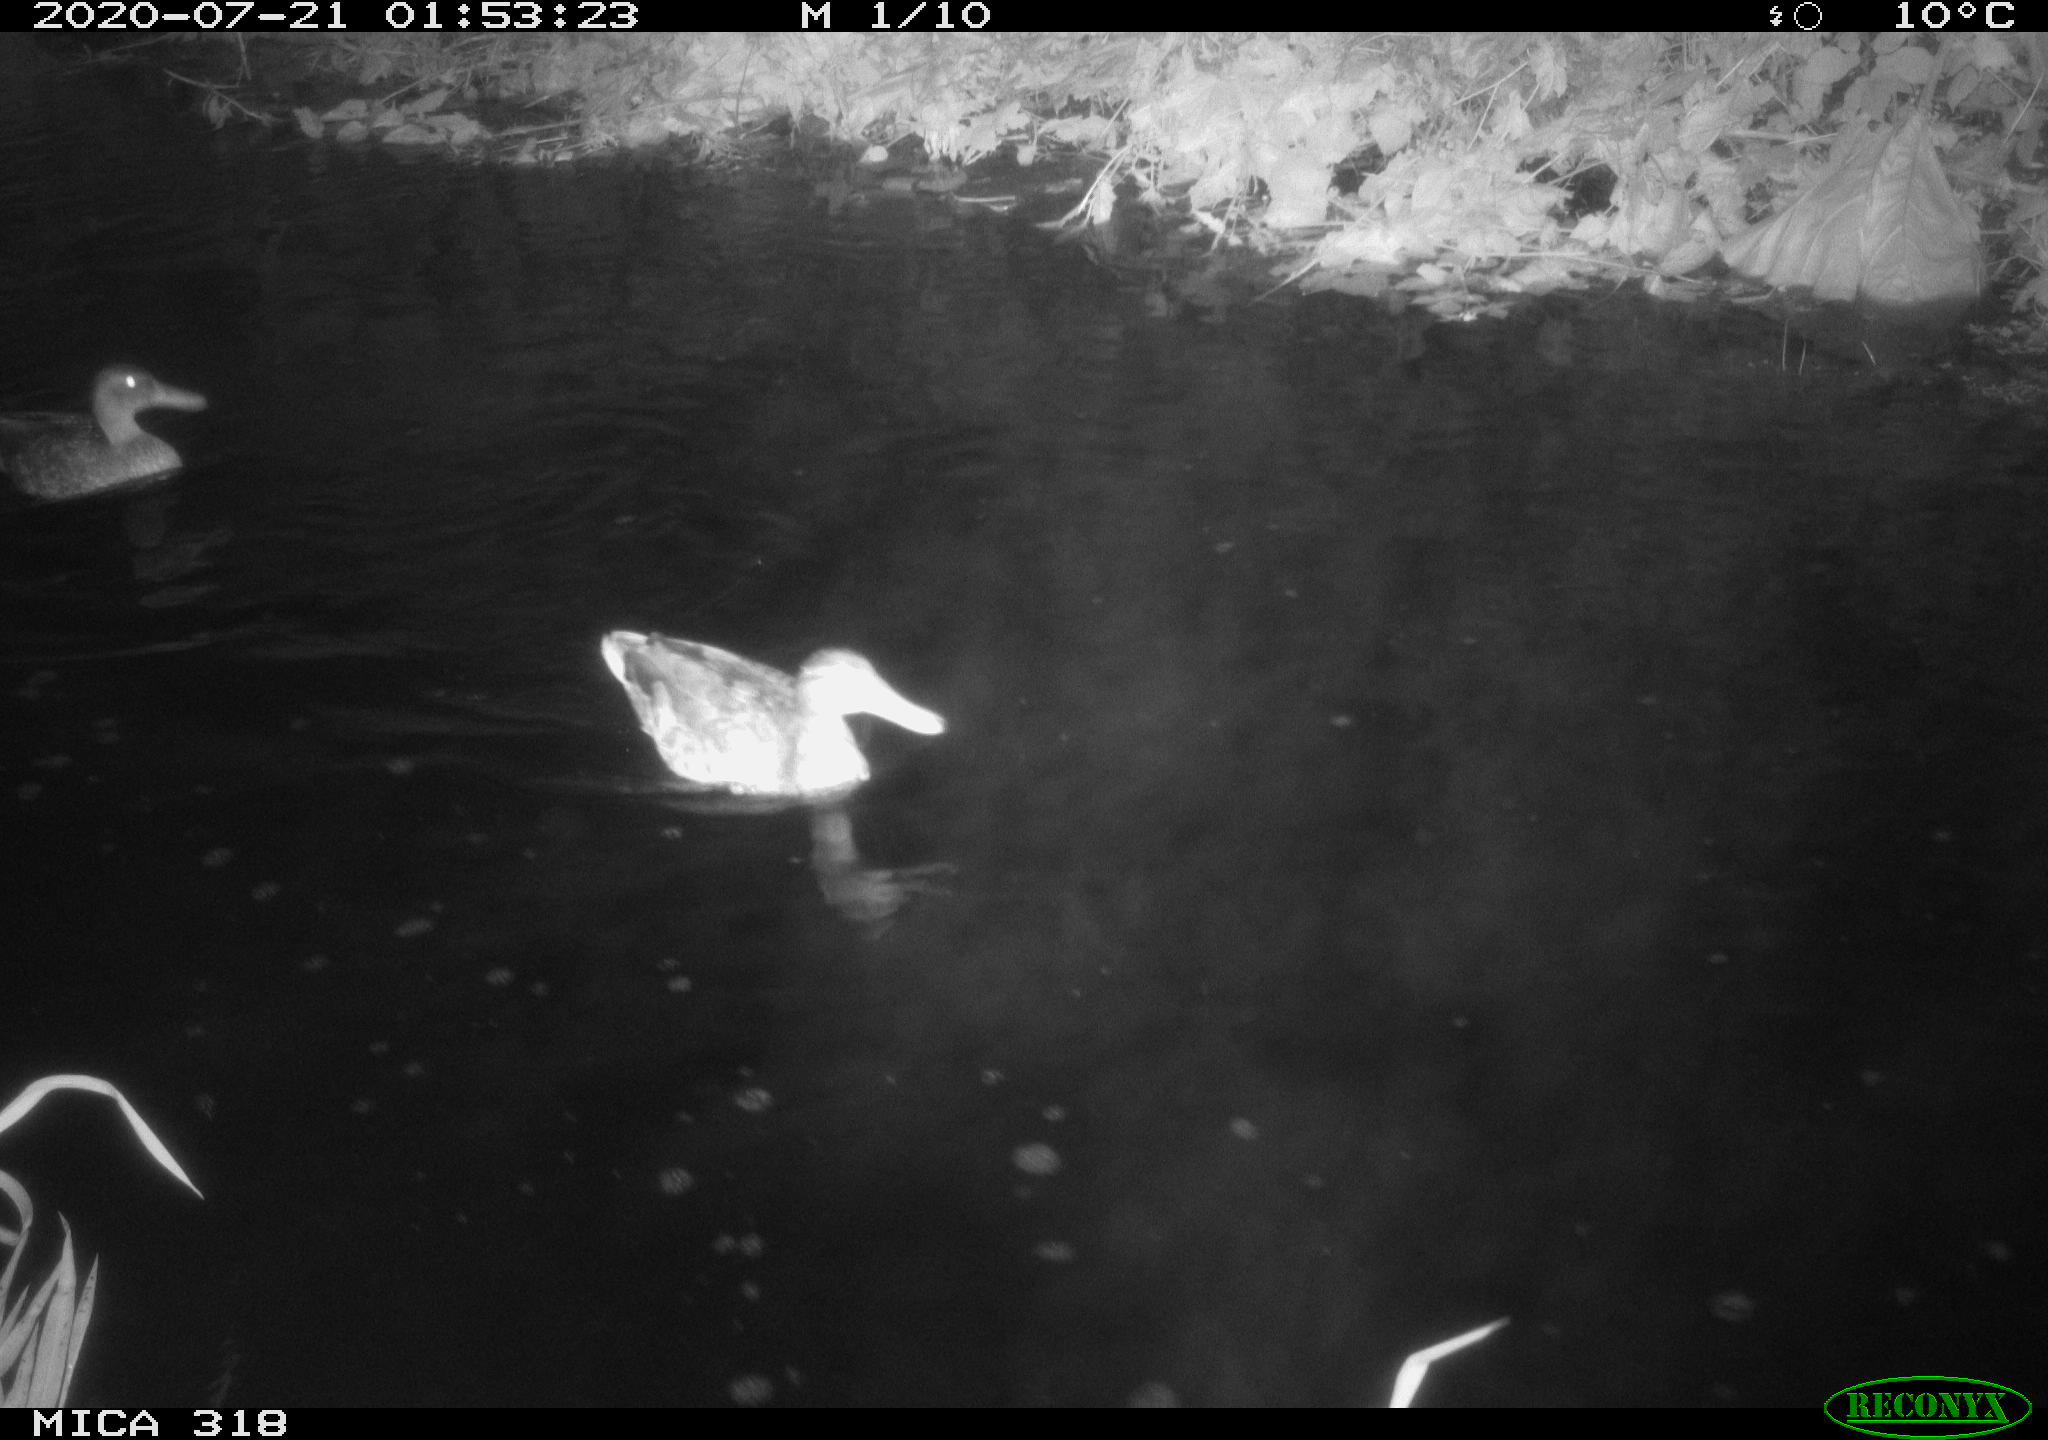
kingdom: Animalia
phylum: Chordata
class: Aves
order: Anseriformes
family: Anatidae
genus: Anas
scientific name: Anas platyrhynchos
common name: Mallard
